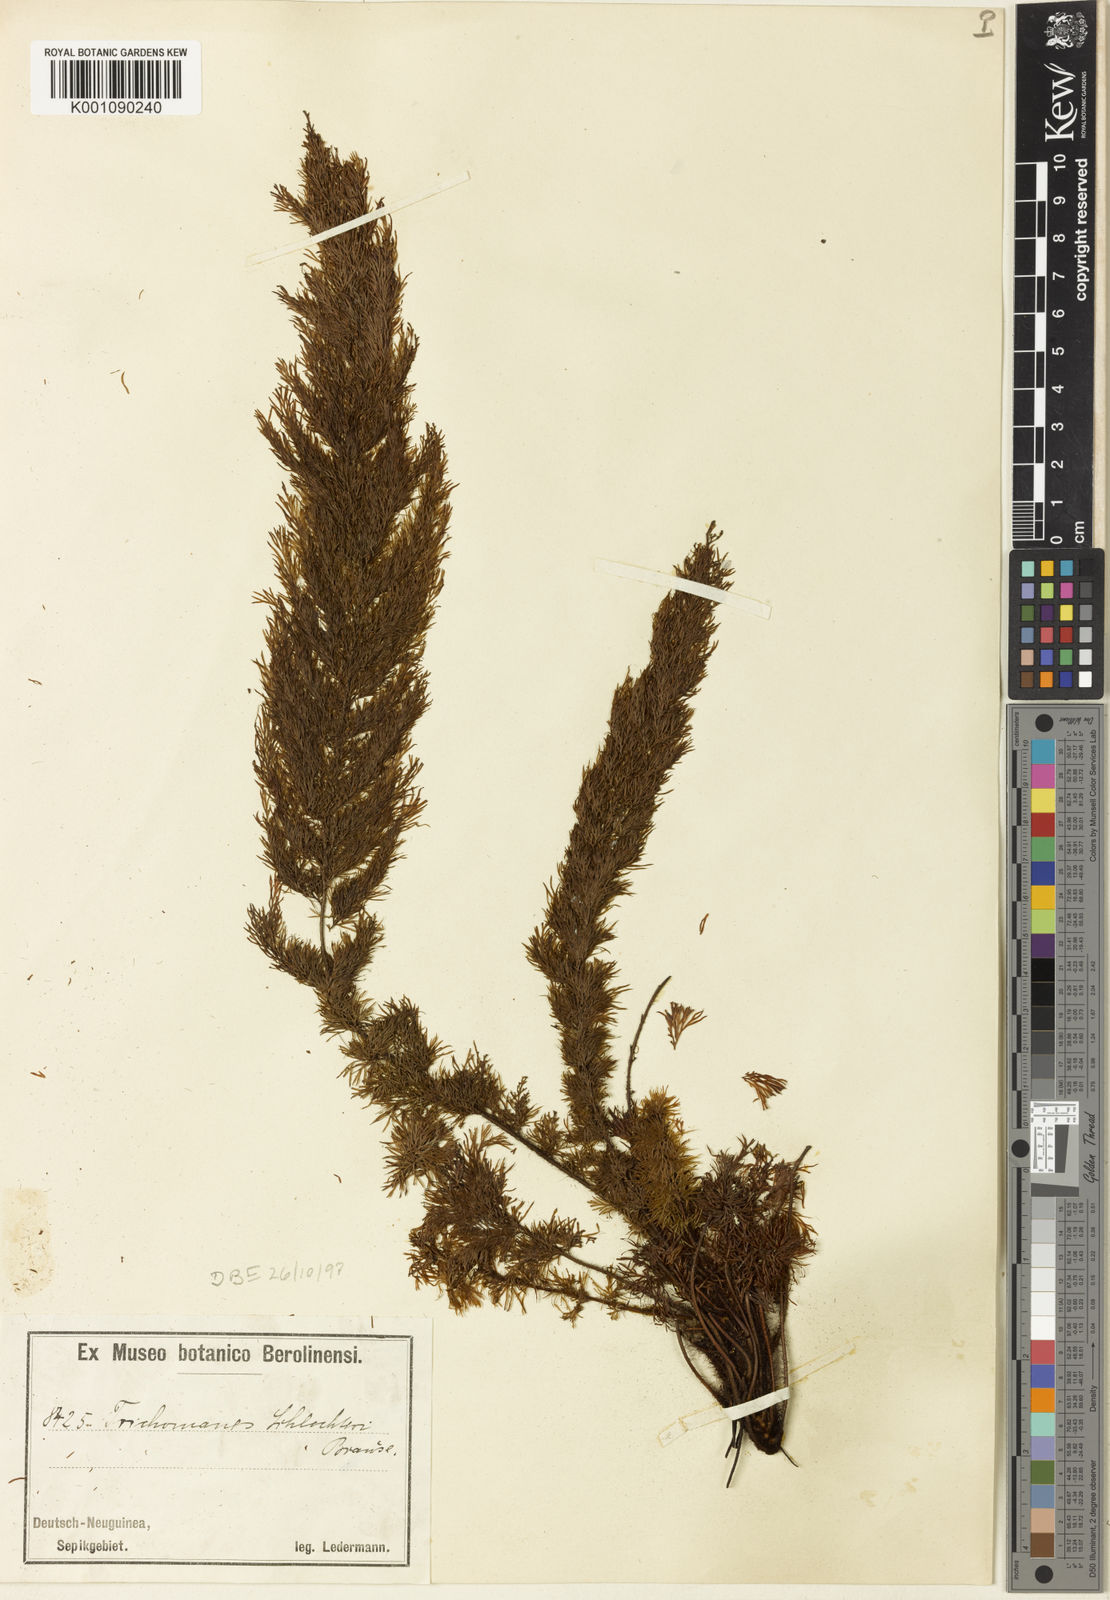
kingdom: Plantae
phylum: Tracheophyta
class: Polypodiopsida
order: Hymenophyllales
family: Hymenophyllaceae
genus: Abrodictyum
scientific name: Abrodictyum schlechteri
